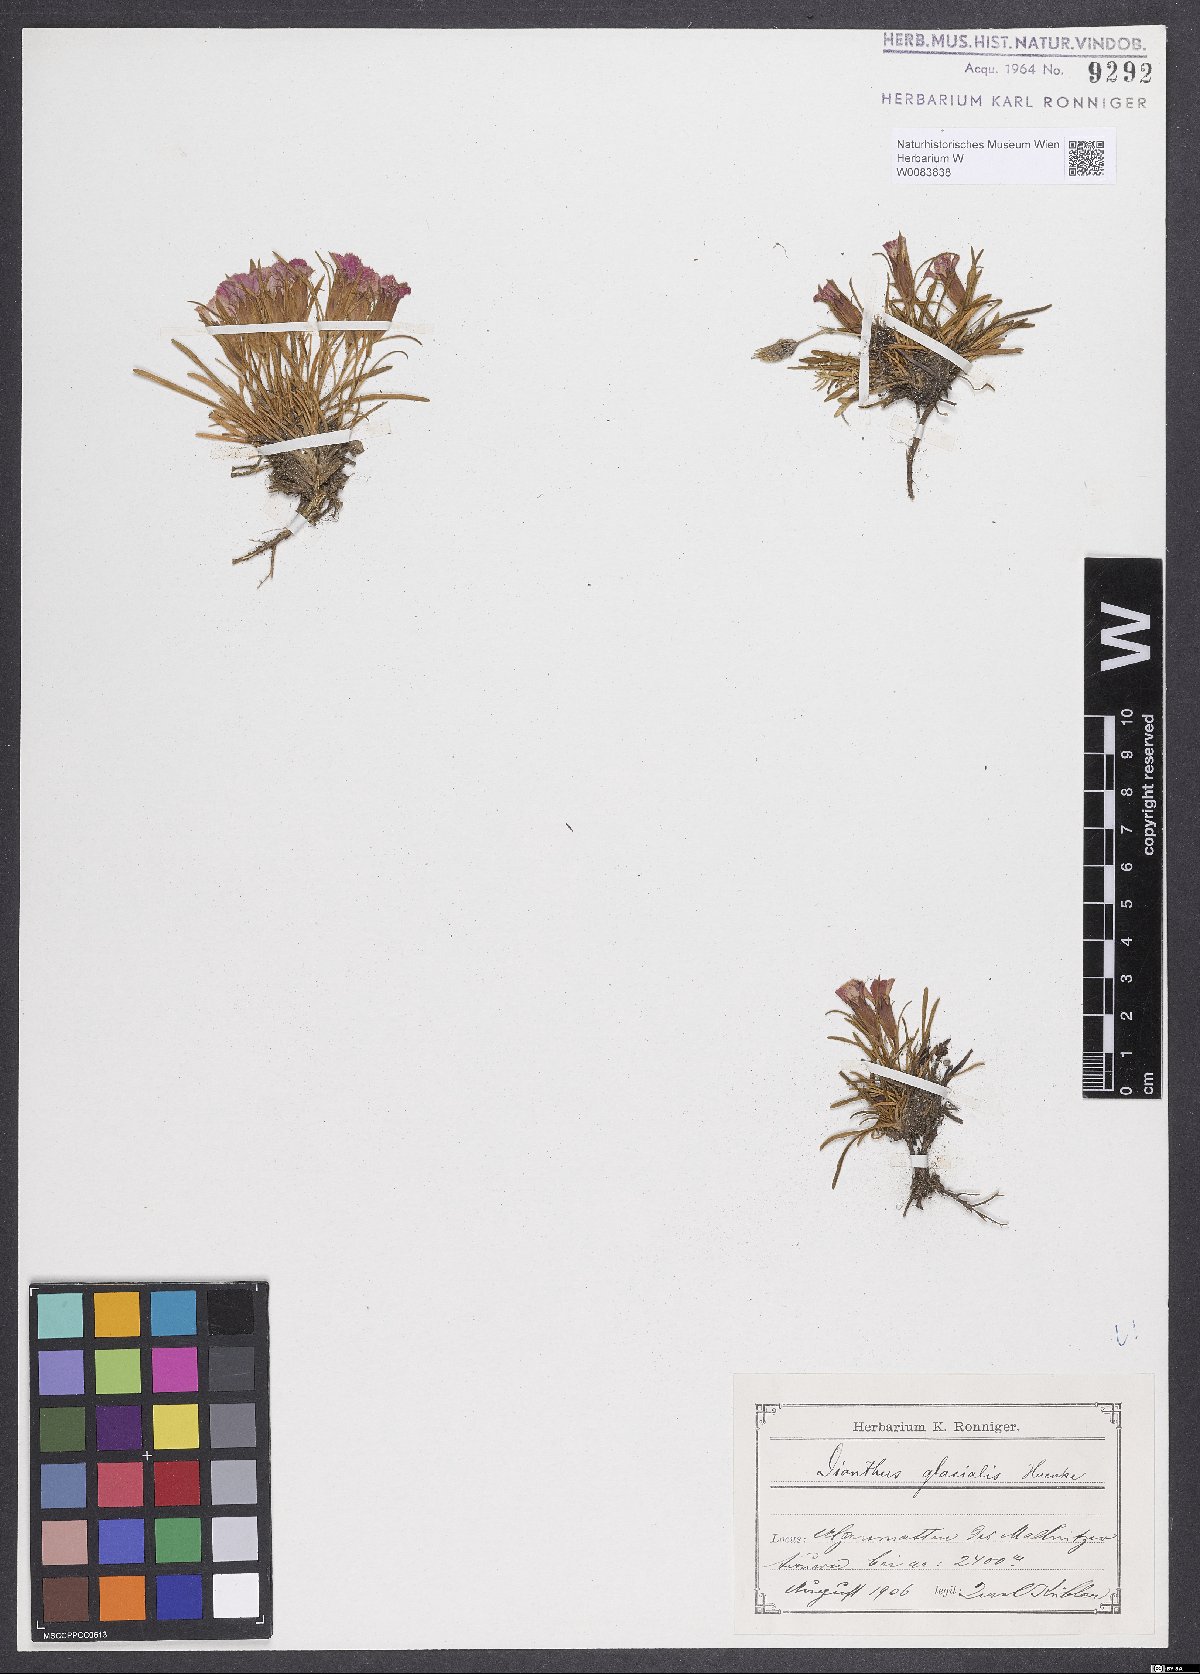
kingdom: Plantae
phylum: Tracheophyta
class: Magnoliopsida
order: Caryophyllales
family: Caryophyllaceae
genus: Dianthus
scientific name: Dianthus glacialis
